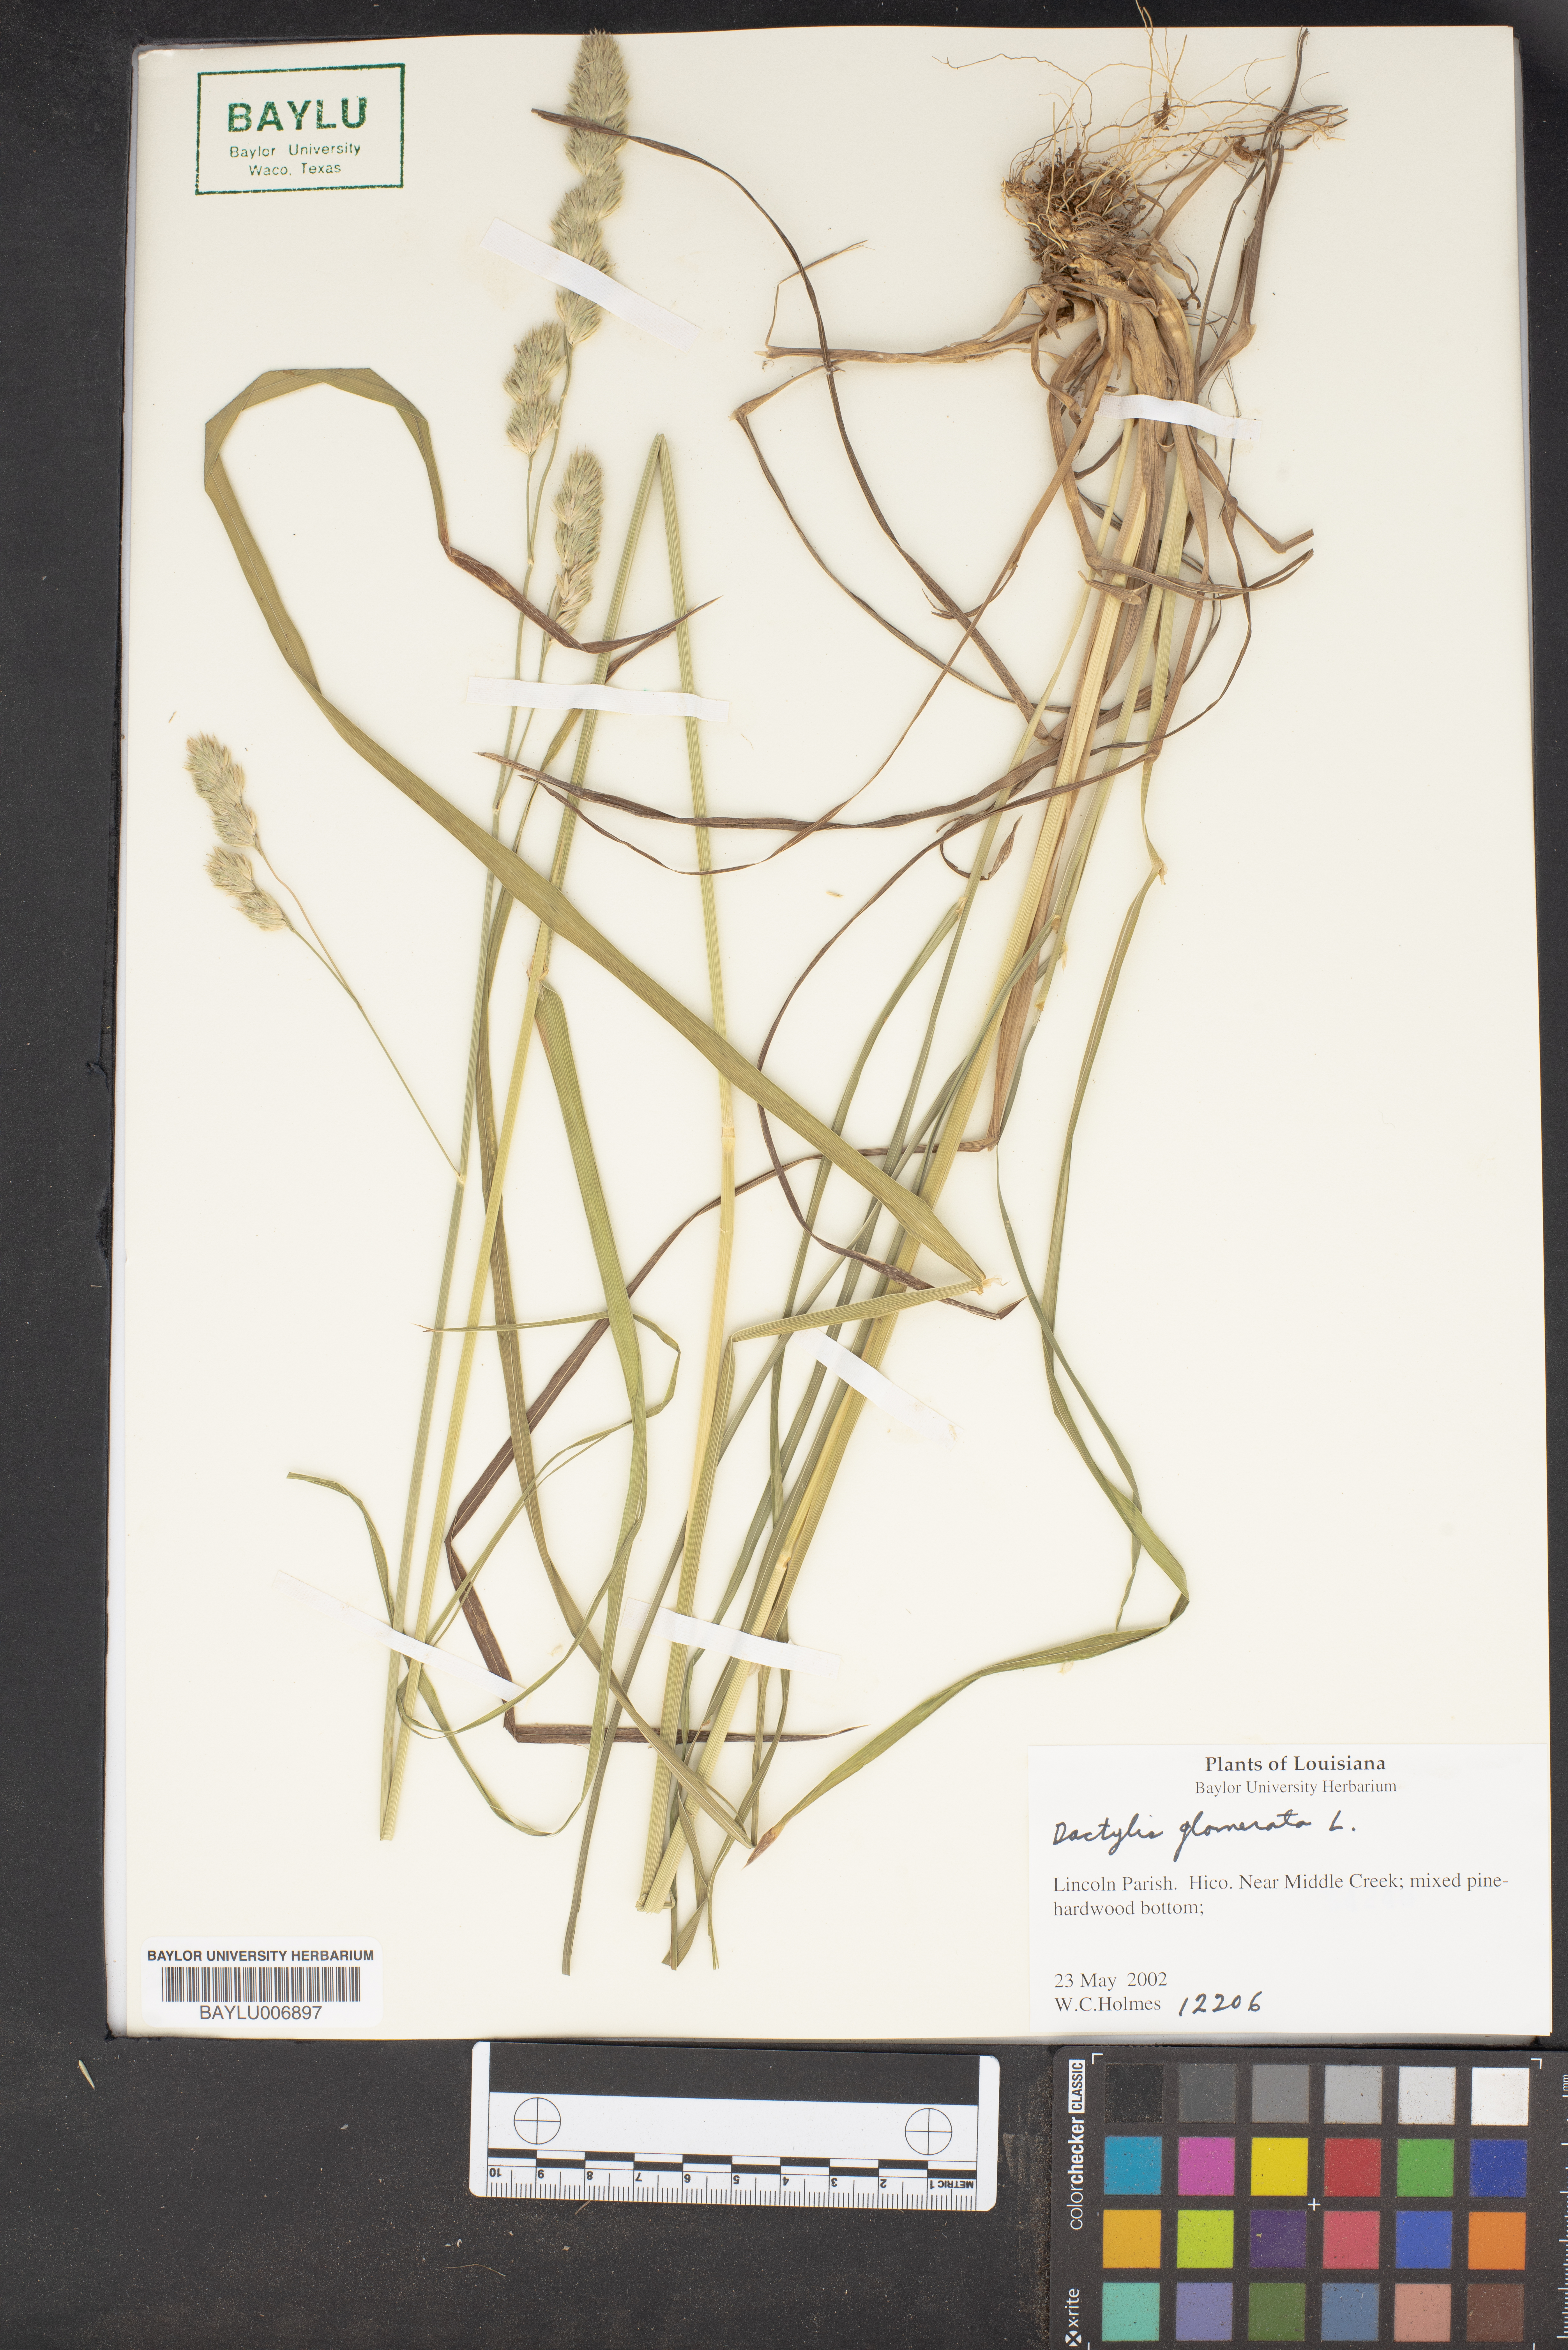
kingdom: Plantae
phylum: Tracheophyta
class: Liliopsida
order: Poales
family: Poaceae
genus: Dactylis
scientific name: Dactylis glomerata
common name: Orchardgrass
